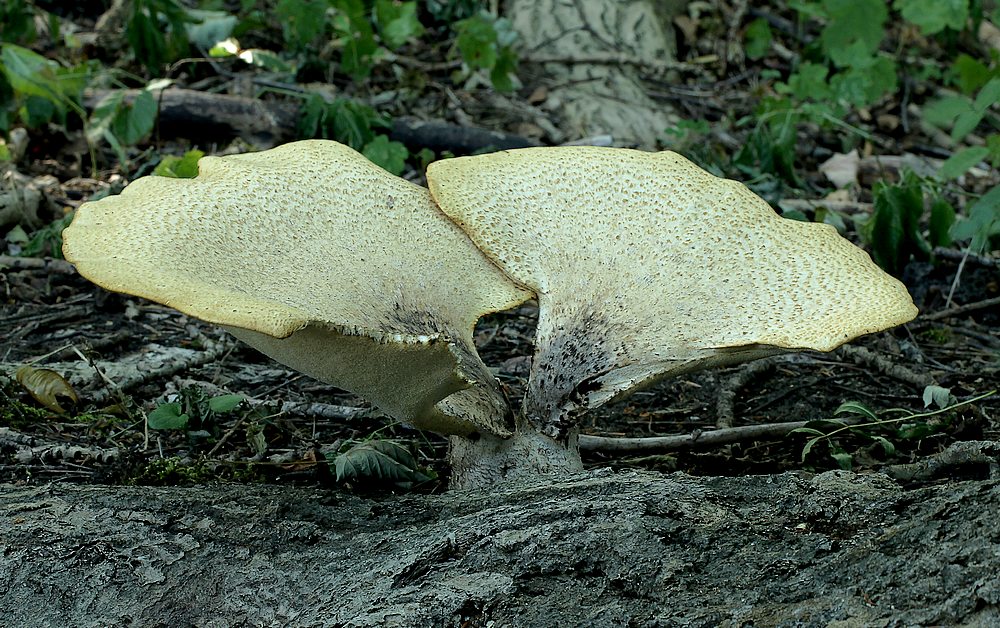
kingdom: Fungi
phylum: Basidiomycota
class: Agaricomycetes
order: Polyporales
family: Polyporaceae
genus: Cerioporus
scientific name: Cerioporus squamosus
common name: skællet stilkporesvamp
